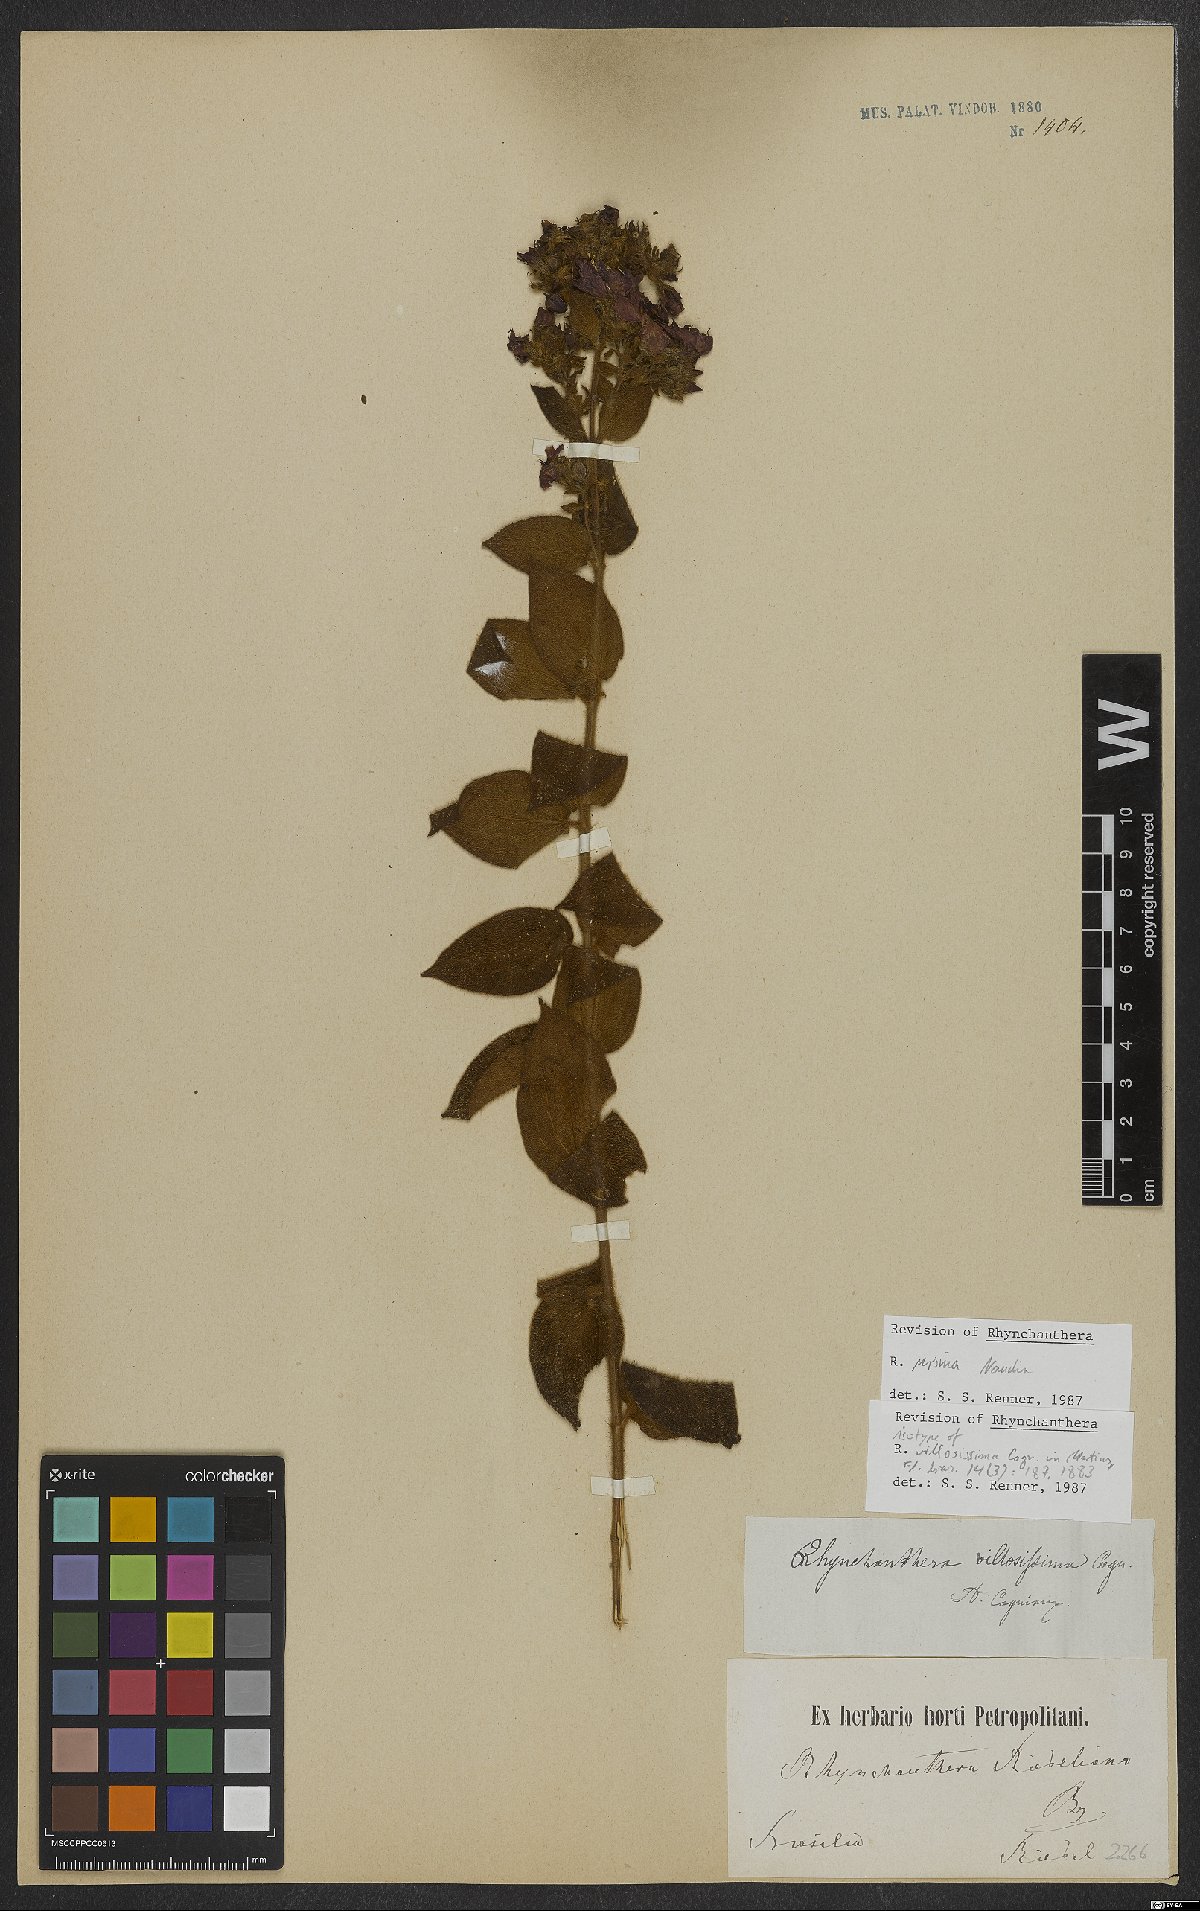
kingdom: Plantae
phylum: Tracheophyta
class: Magnoliopsida
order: Myrtales
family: Melastomataceae
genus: Rhynchanthera
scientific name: Rhynchanthera ursina
